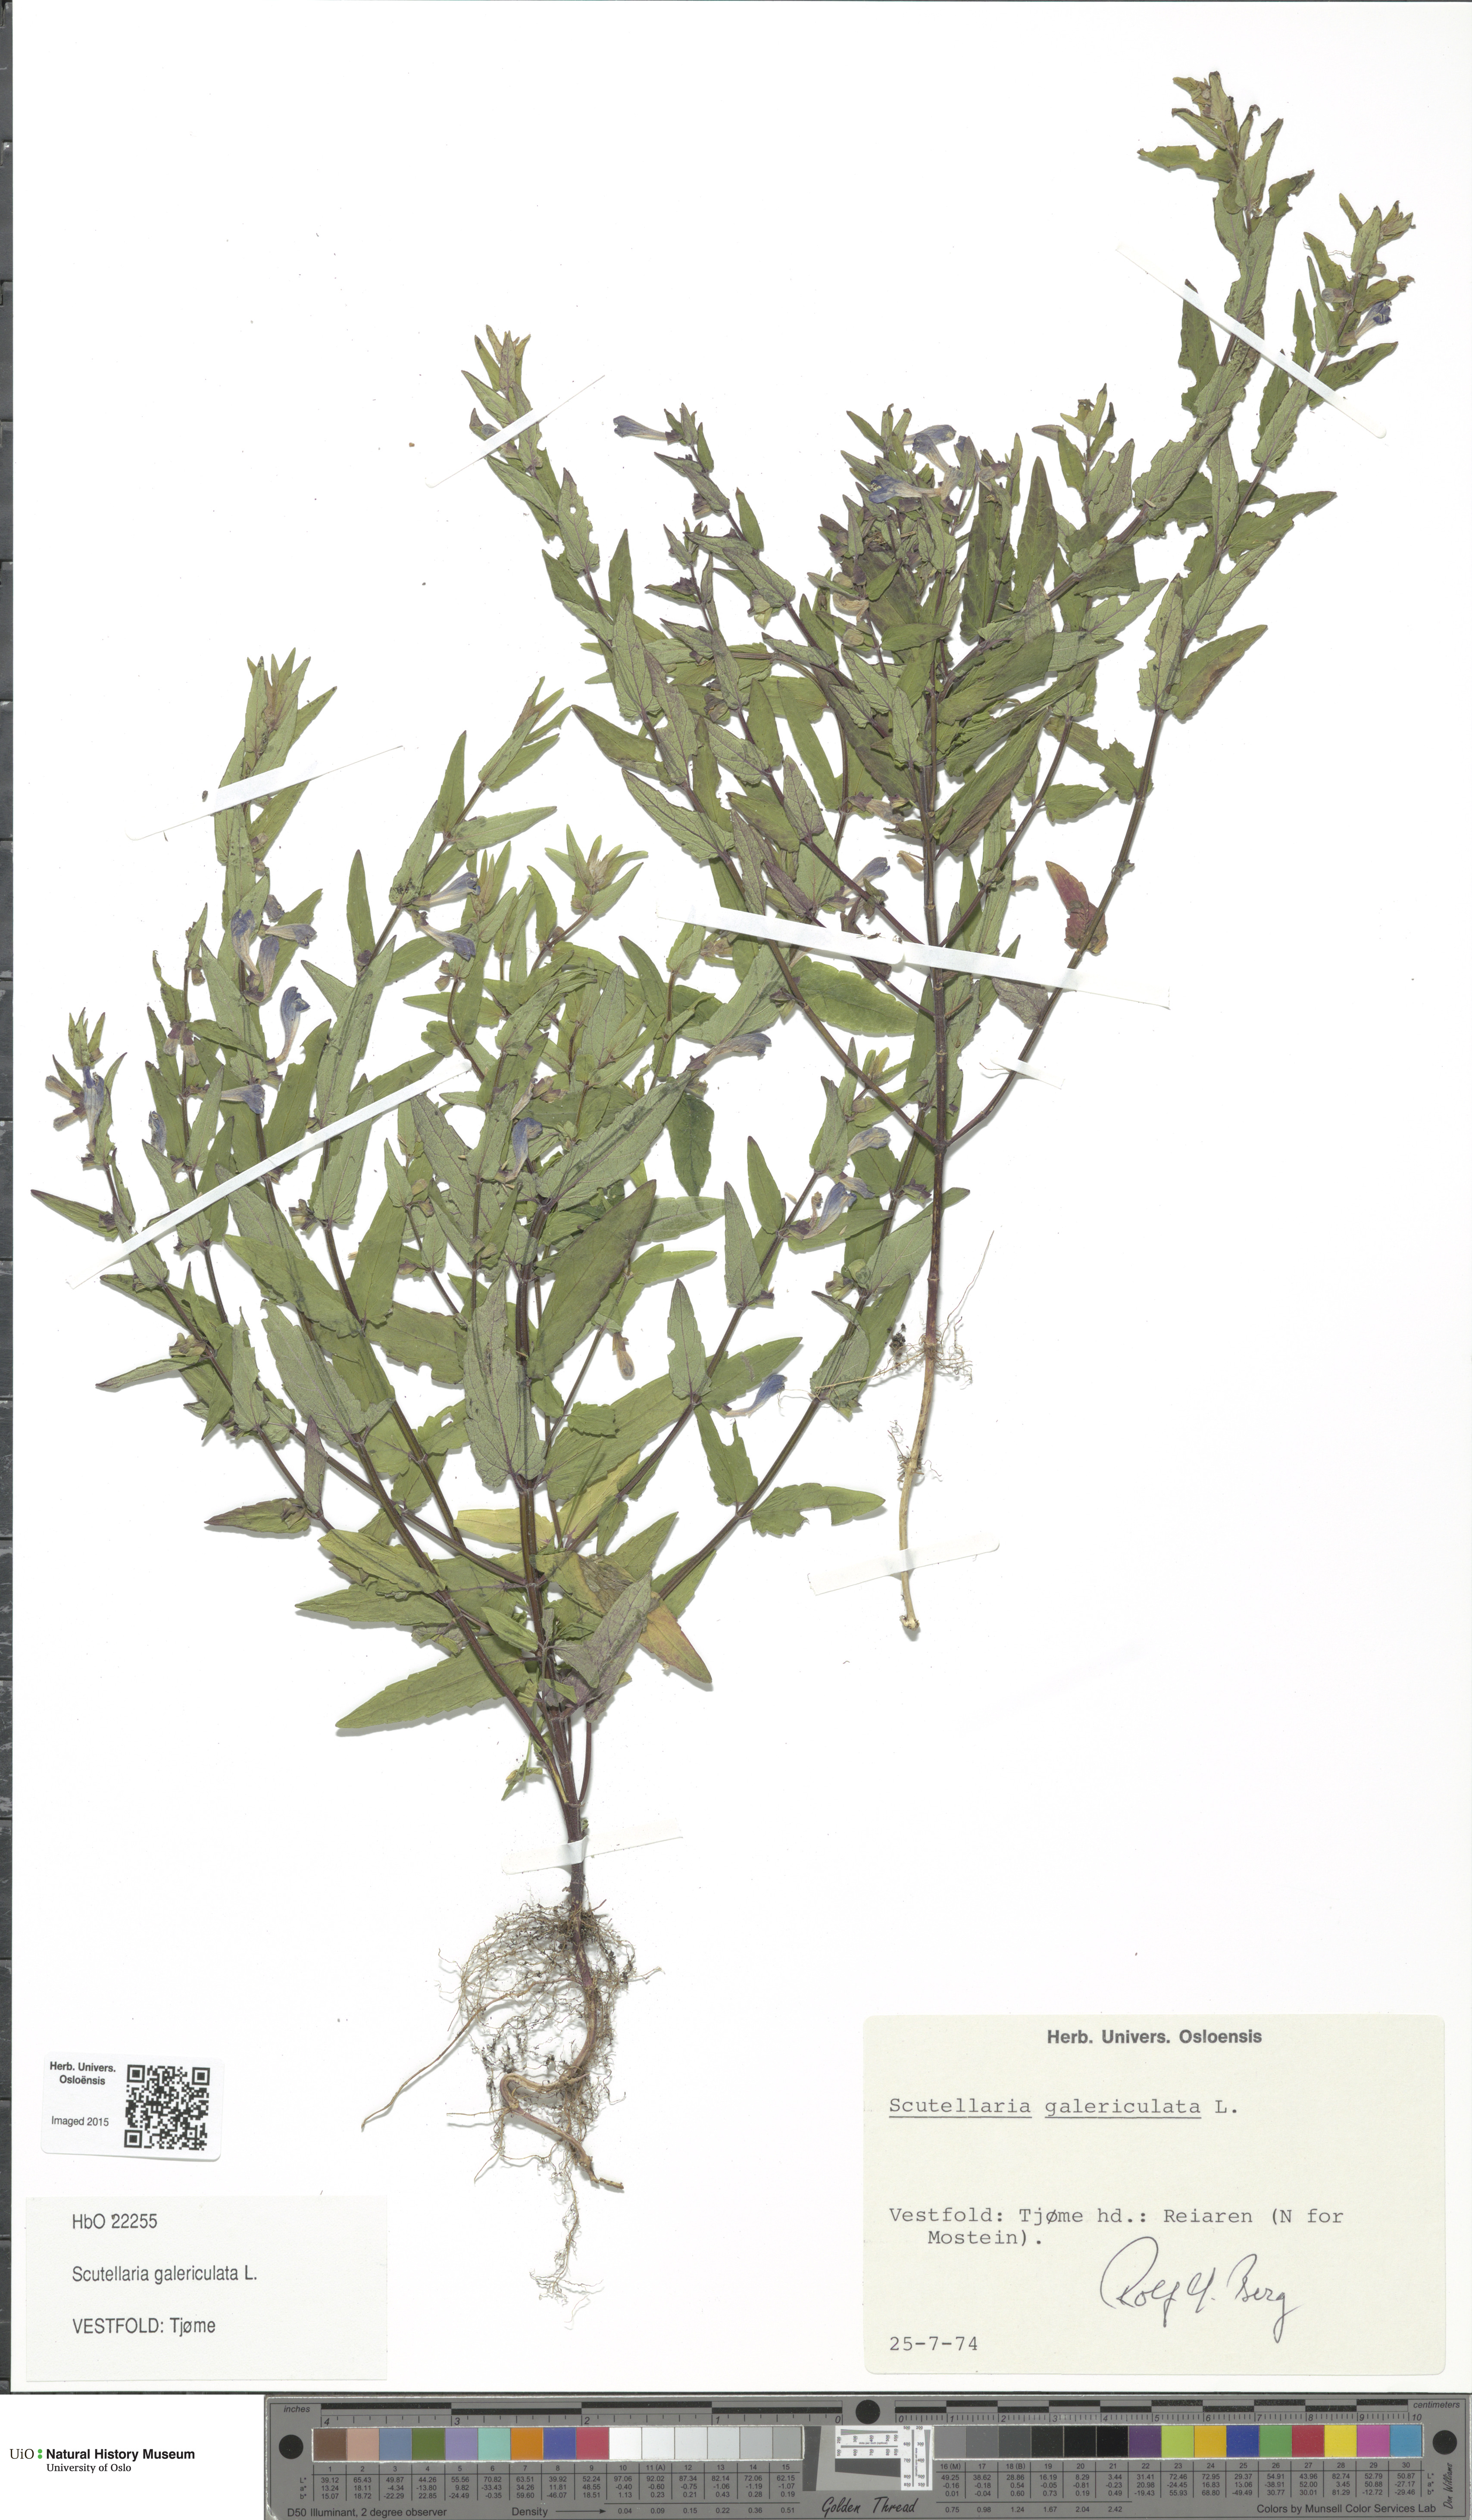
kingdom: Plantae
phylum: Tracheophyta
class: Magnoliopsida
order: Lamiales
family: Lamiaceae
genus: Scutellaria
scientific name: Scutellaria galericulata
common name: Skullcap
